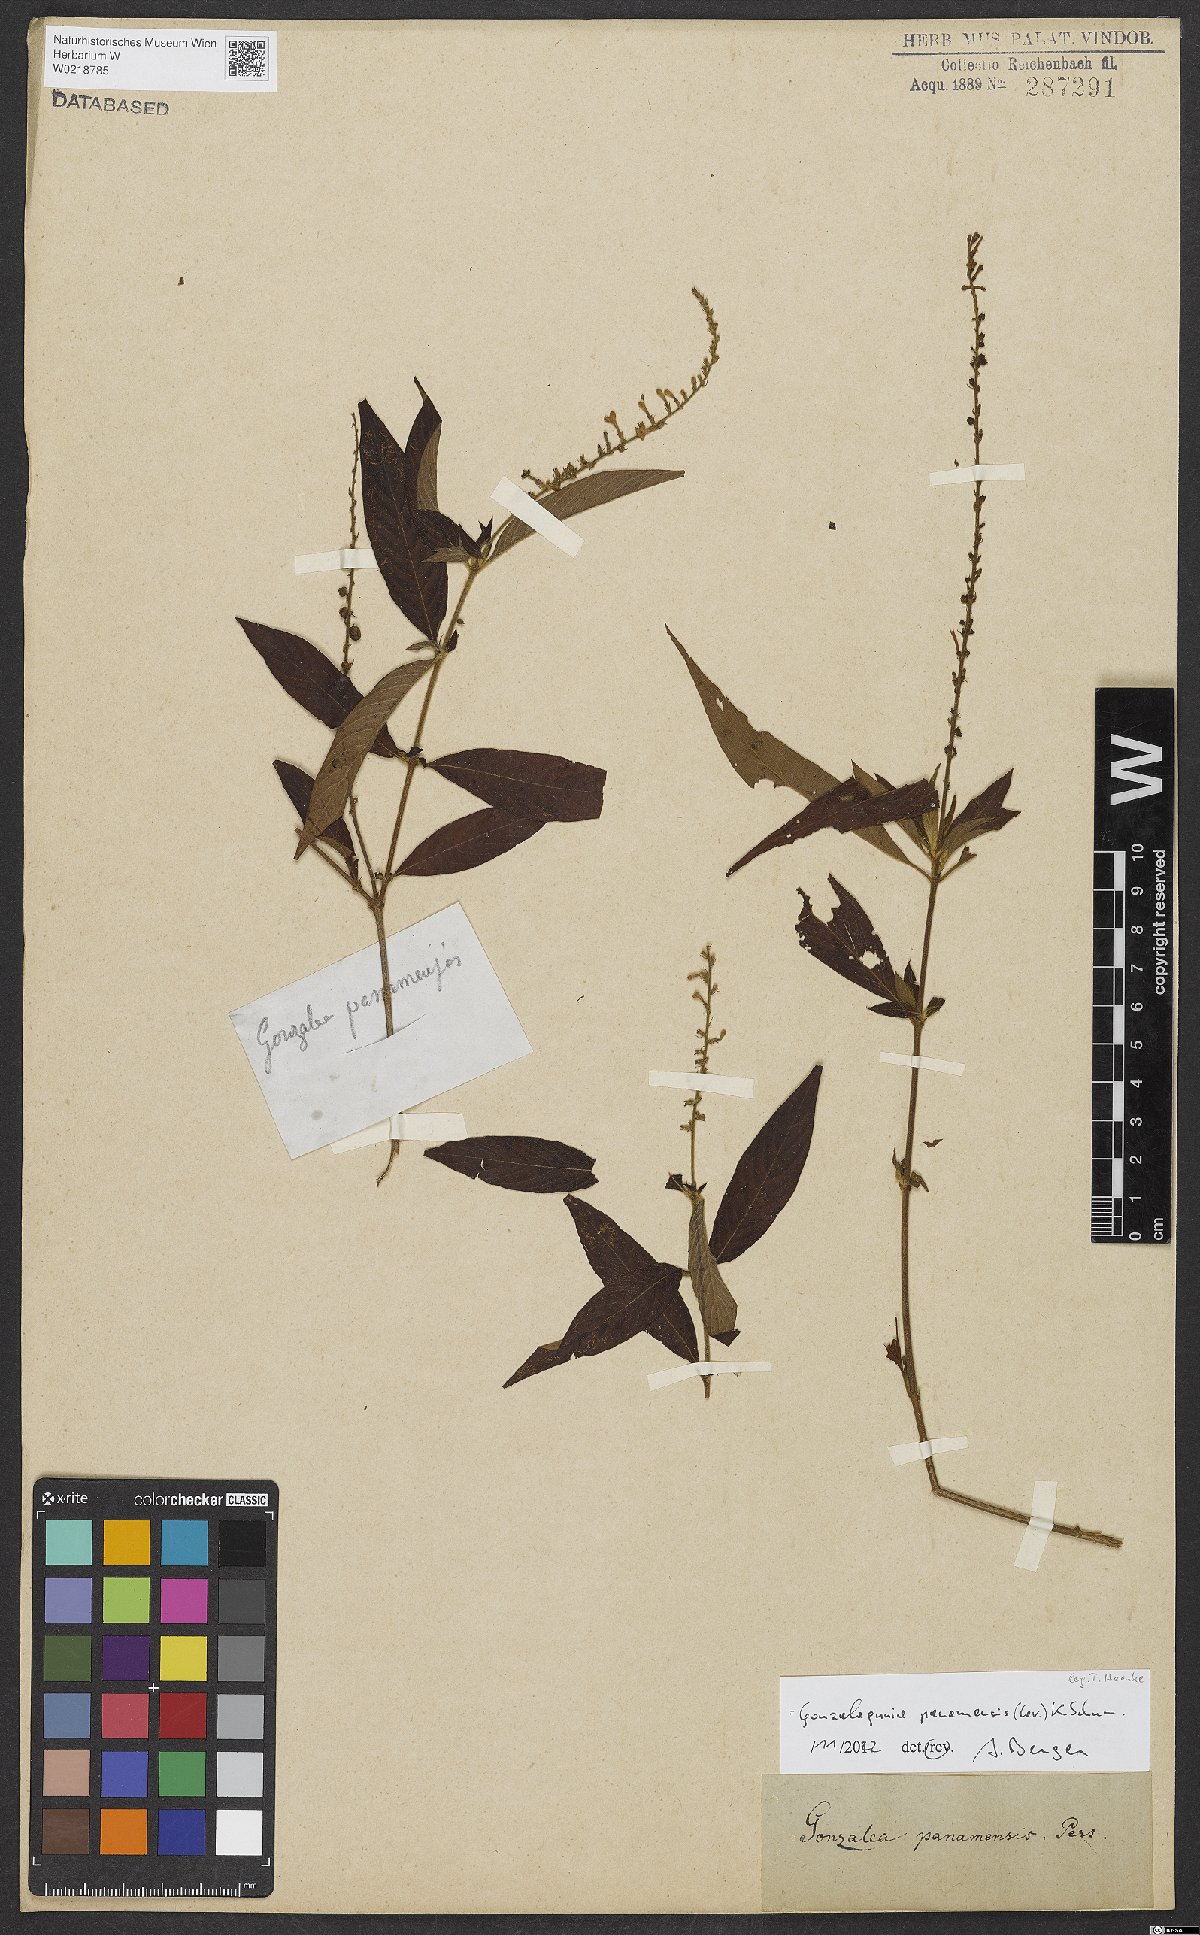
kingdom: Plantae
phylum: Tracheophyta
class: Magnoliopsida
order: Gentianales
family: Rubiaceae
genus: Gonzalagunia
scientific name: Gonzalagunia panamensis
